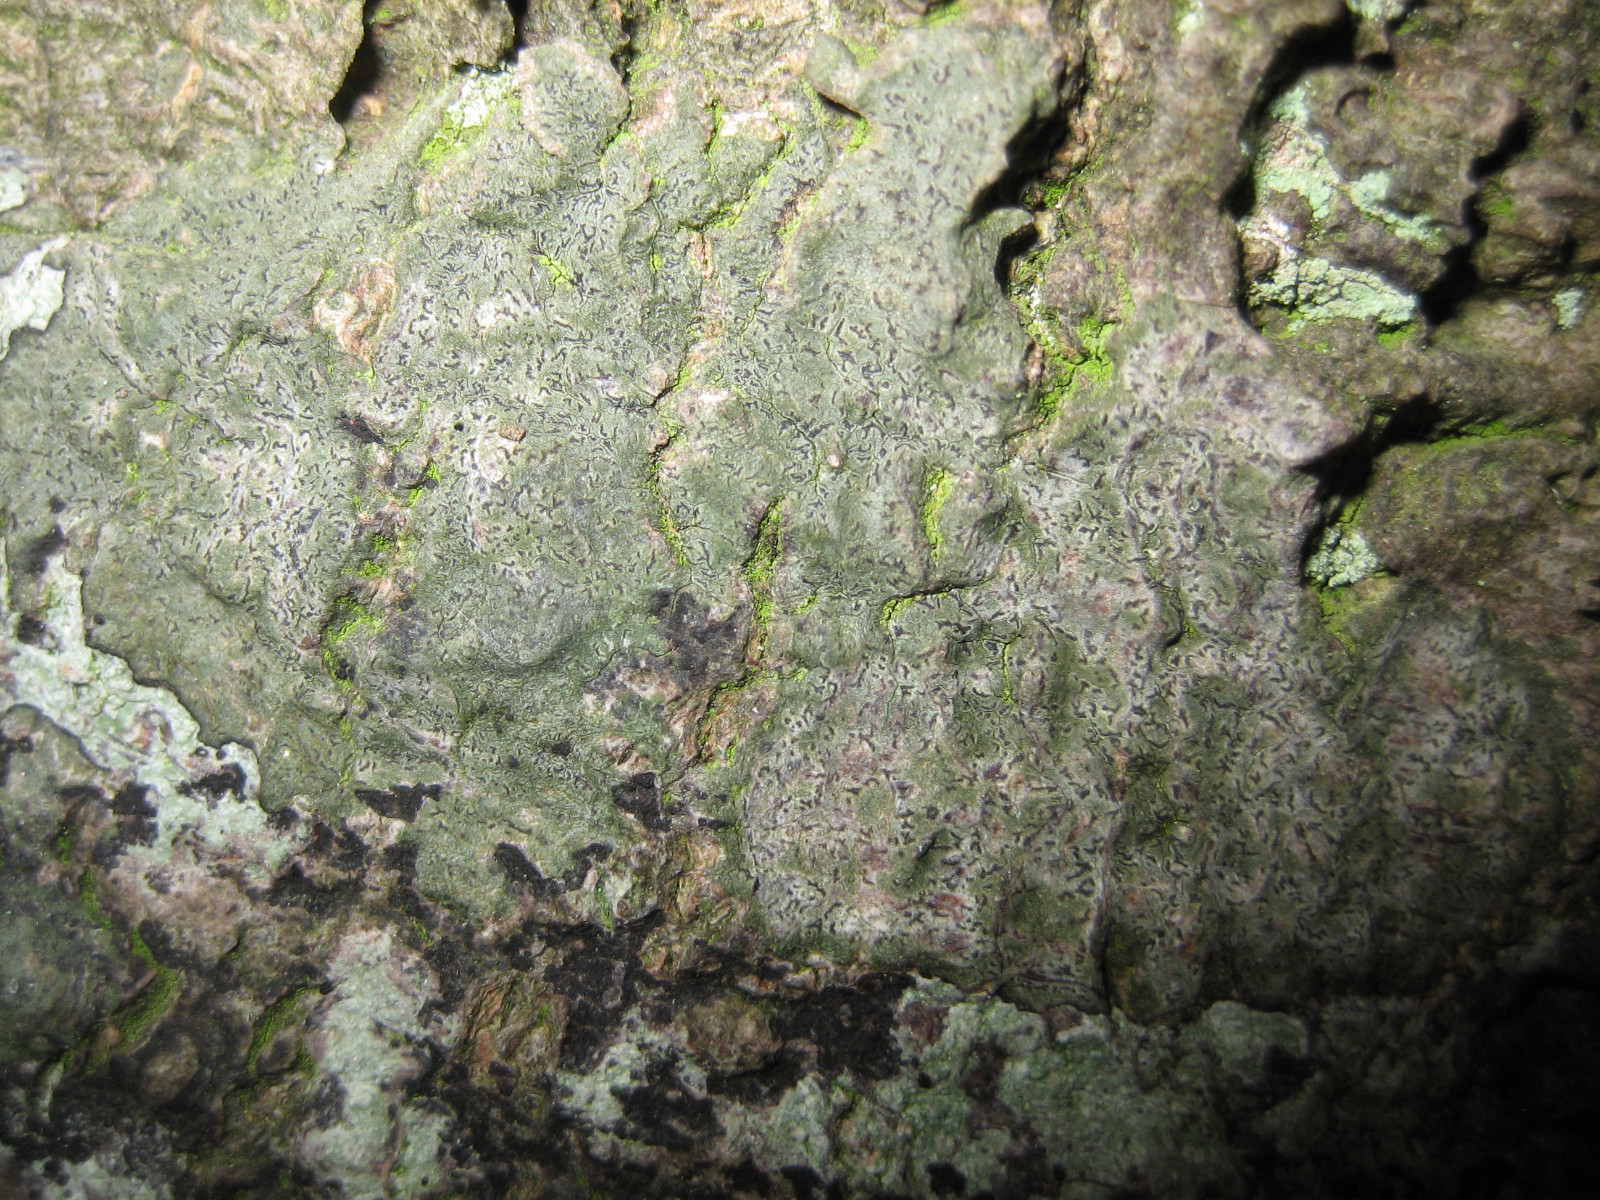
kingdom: Fungi
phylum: Ascomycota
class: Arthoniomycetes
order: Arthoniales
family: Roccellaceae
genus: Enterographa
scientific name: Enterographa
